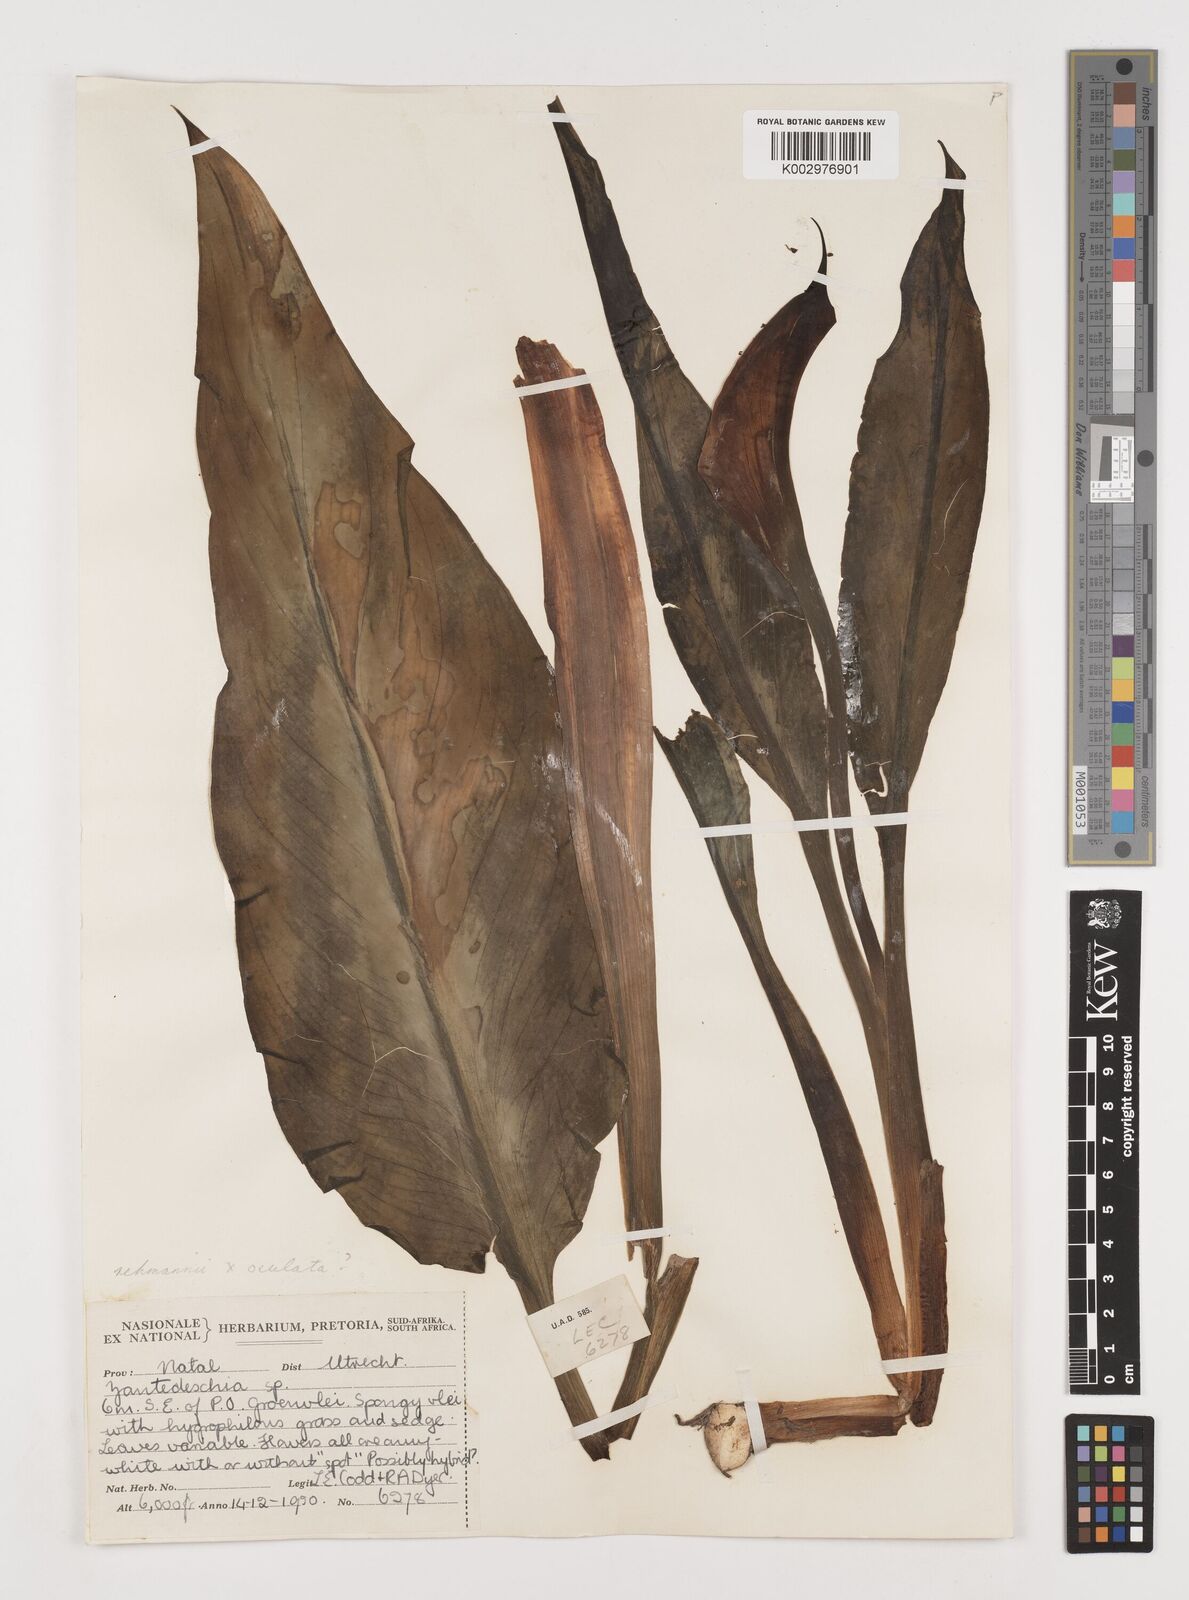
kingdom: Plantae
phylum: Tracheophyta
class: Liliopsida
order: Alismatales
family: Araceae
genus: Zantedeschia
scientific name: Zantedeschia
